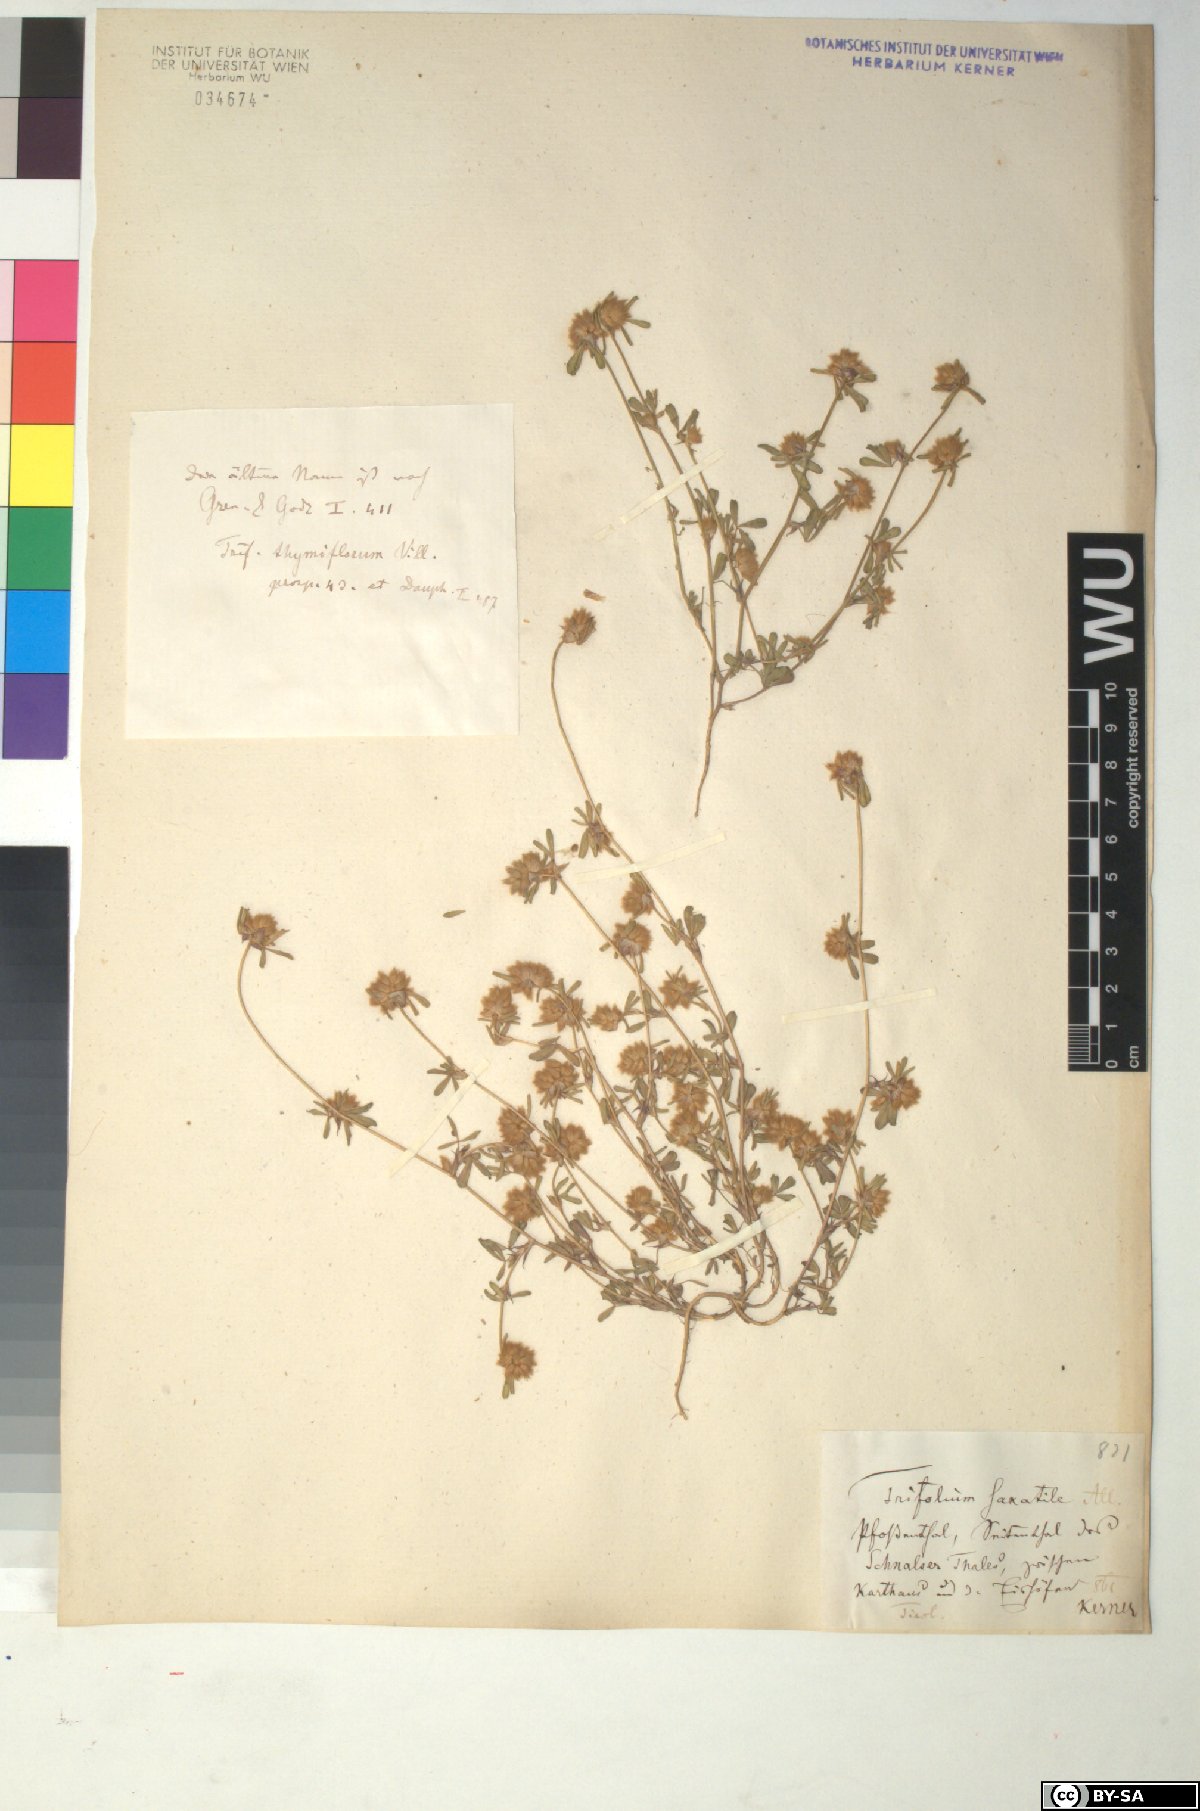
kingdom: Plantae
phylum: Tracheophyta
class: Magnoliopsida
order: Fabales
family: Fabaceae
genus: Trifolium
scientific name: Trifolium saxatile
